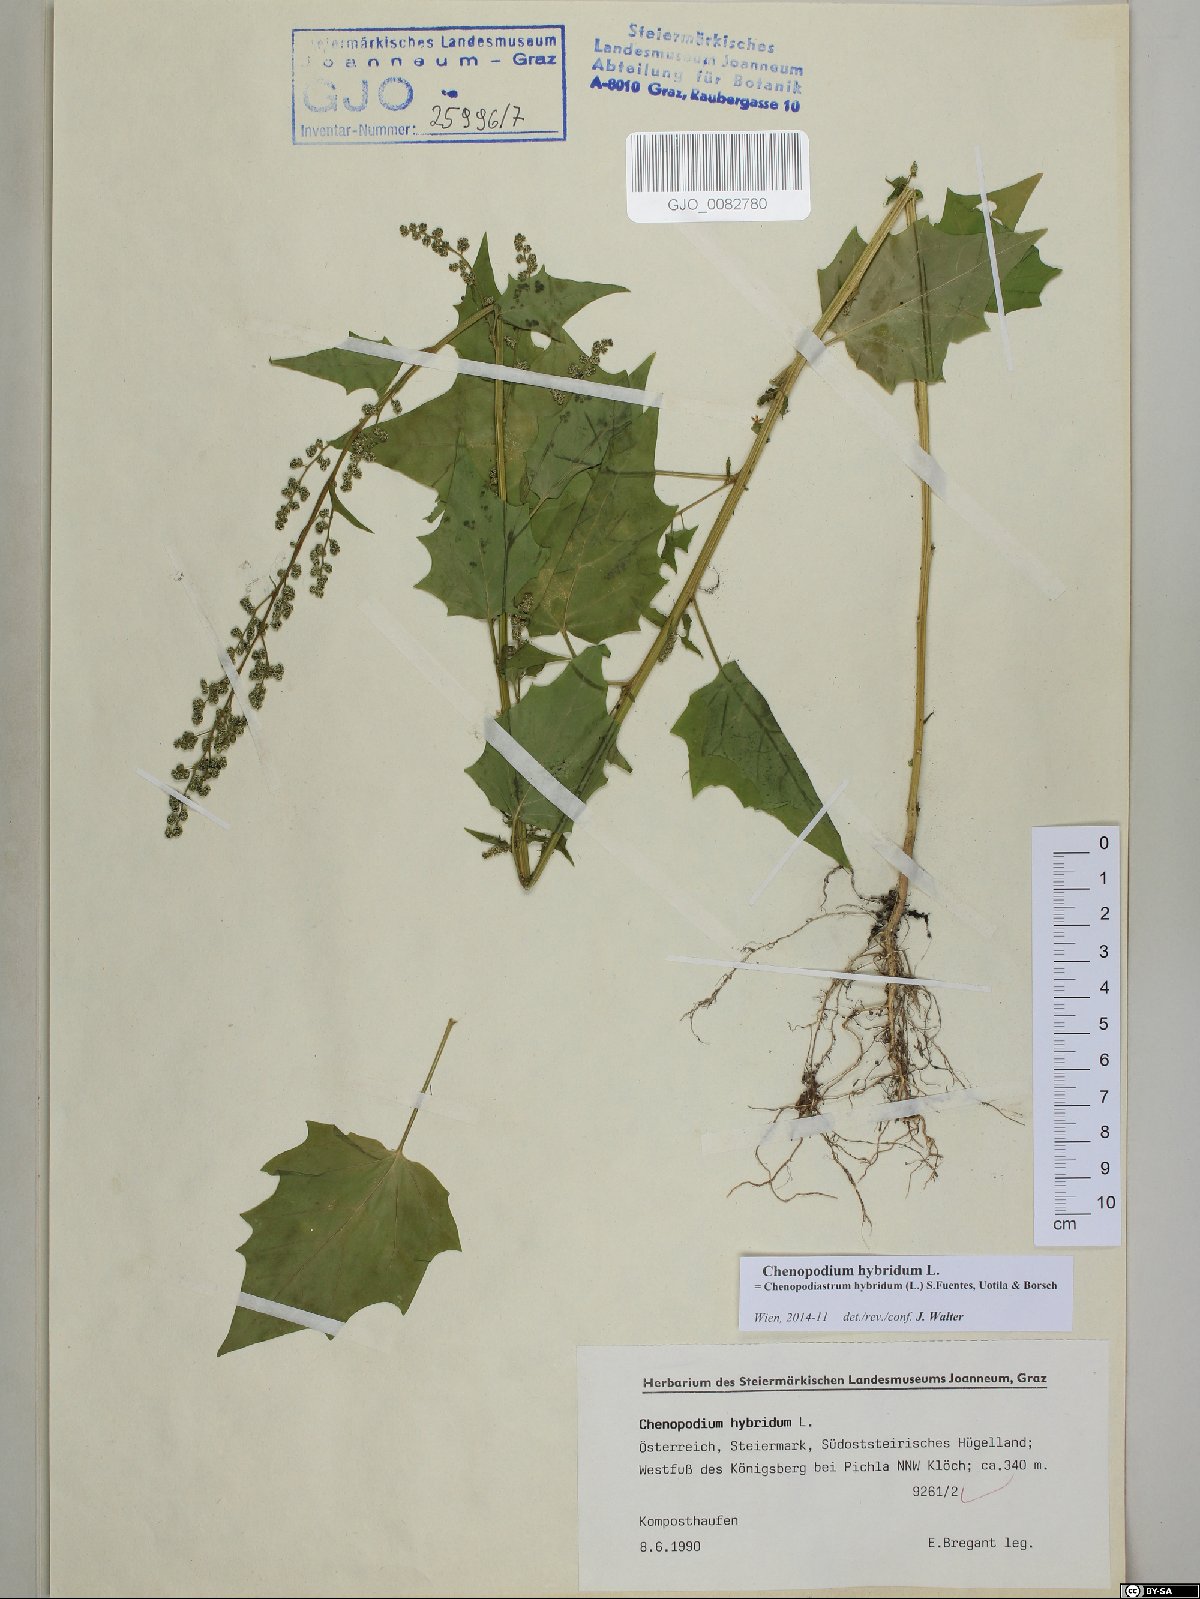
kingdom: Plantae
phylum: Tracheophyta
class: Magnoliopsida
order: Caryophyllales
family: Amaranthaceae
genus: Chenopodiastrum
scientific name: Chenopodiastrum hybridum
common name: Mapleleaf goosefoot
